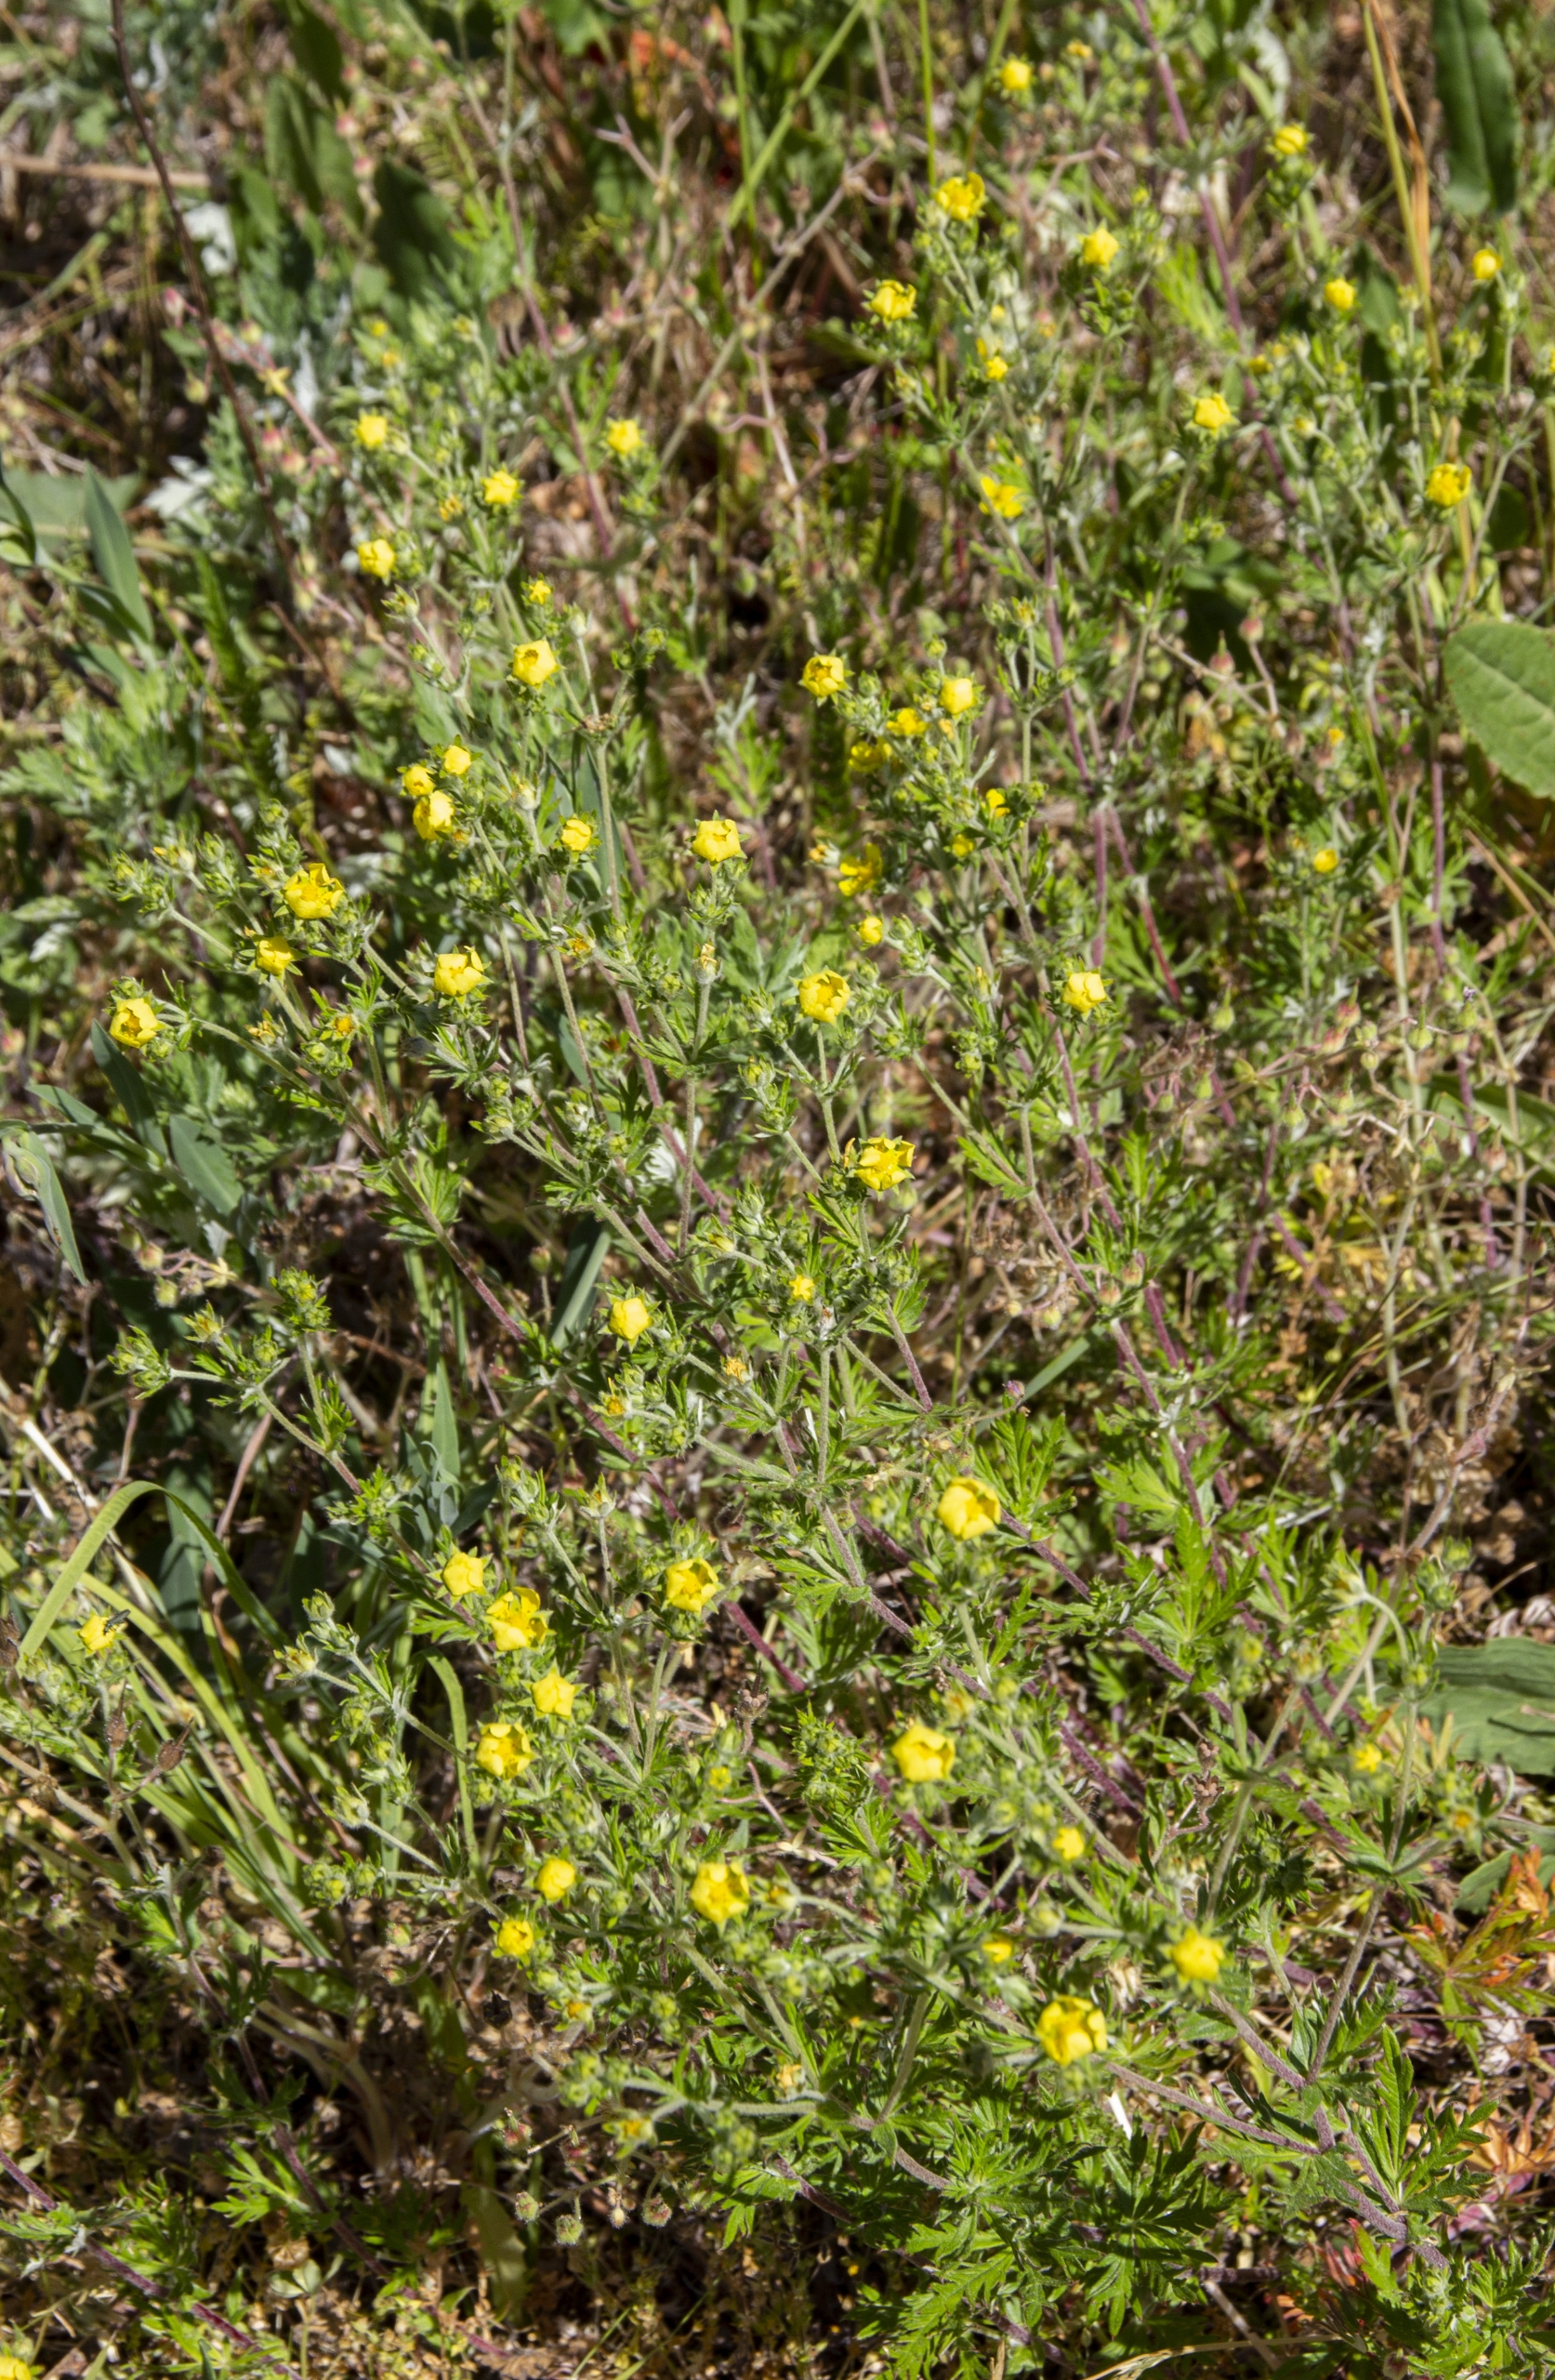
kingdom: Plantae
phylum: Tracheophyta
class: Magnoliopsida
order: Rosales
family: Rosaceae
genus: Potentilla
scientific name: Potentilla argentea
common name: Sølv-potentil
